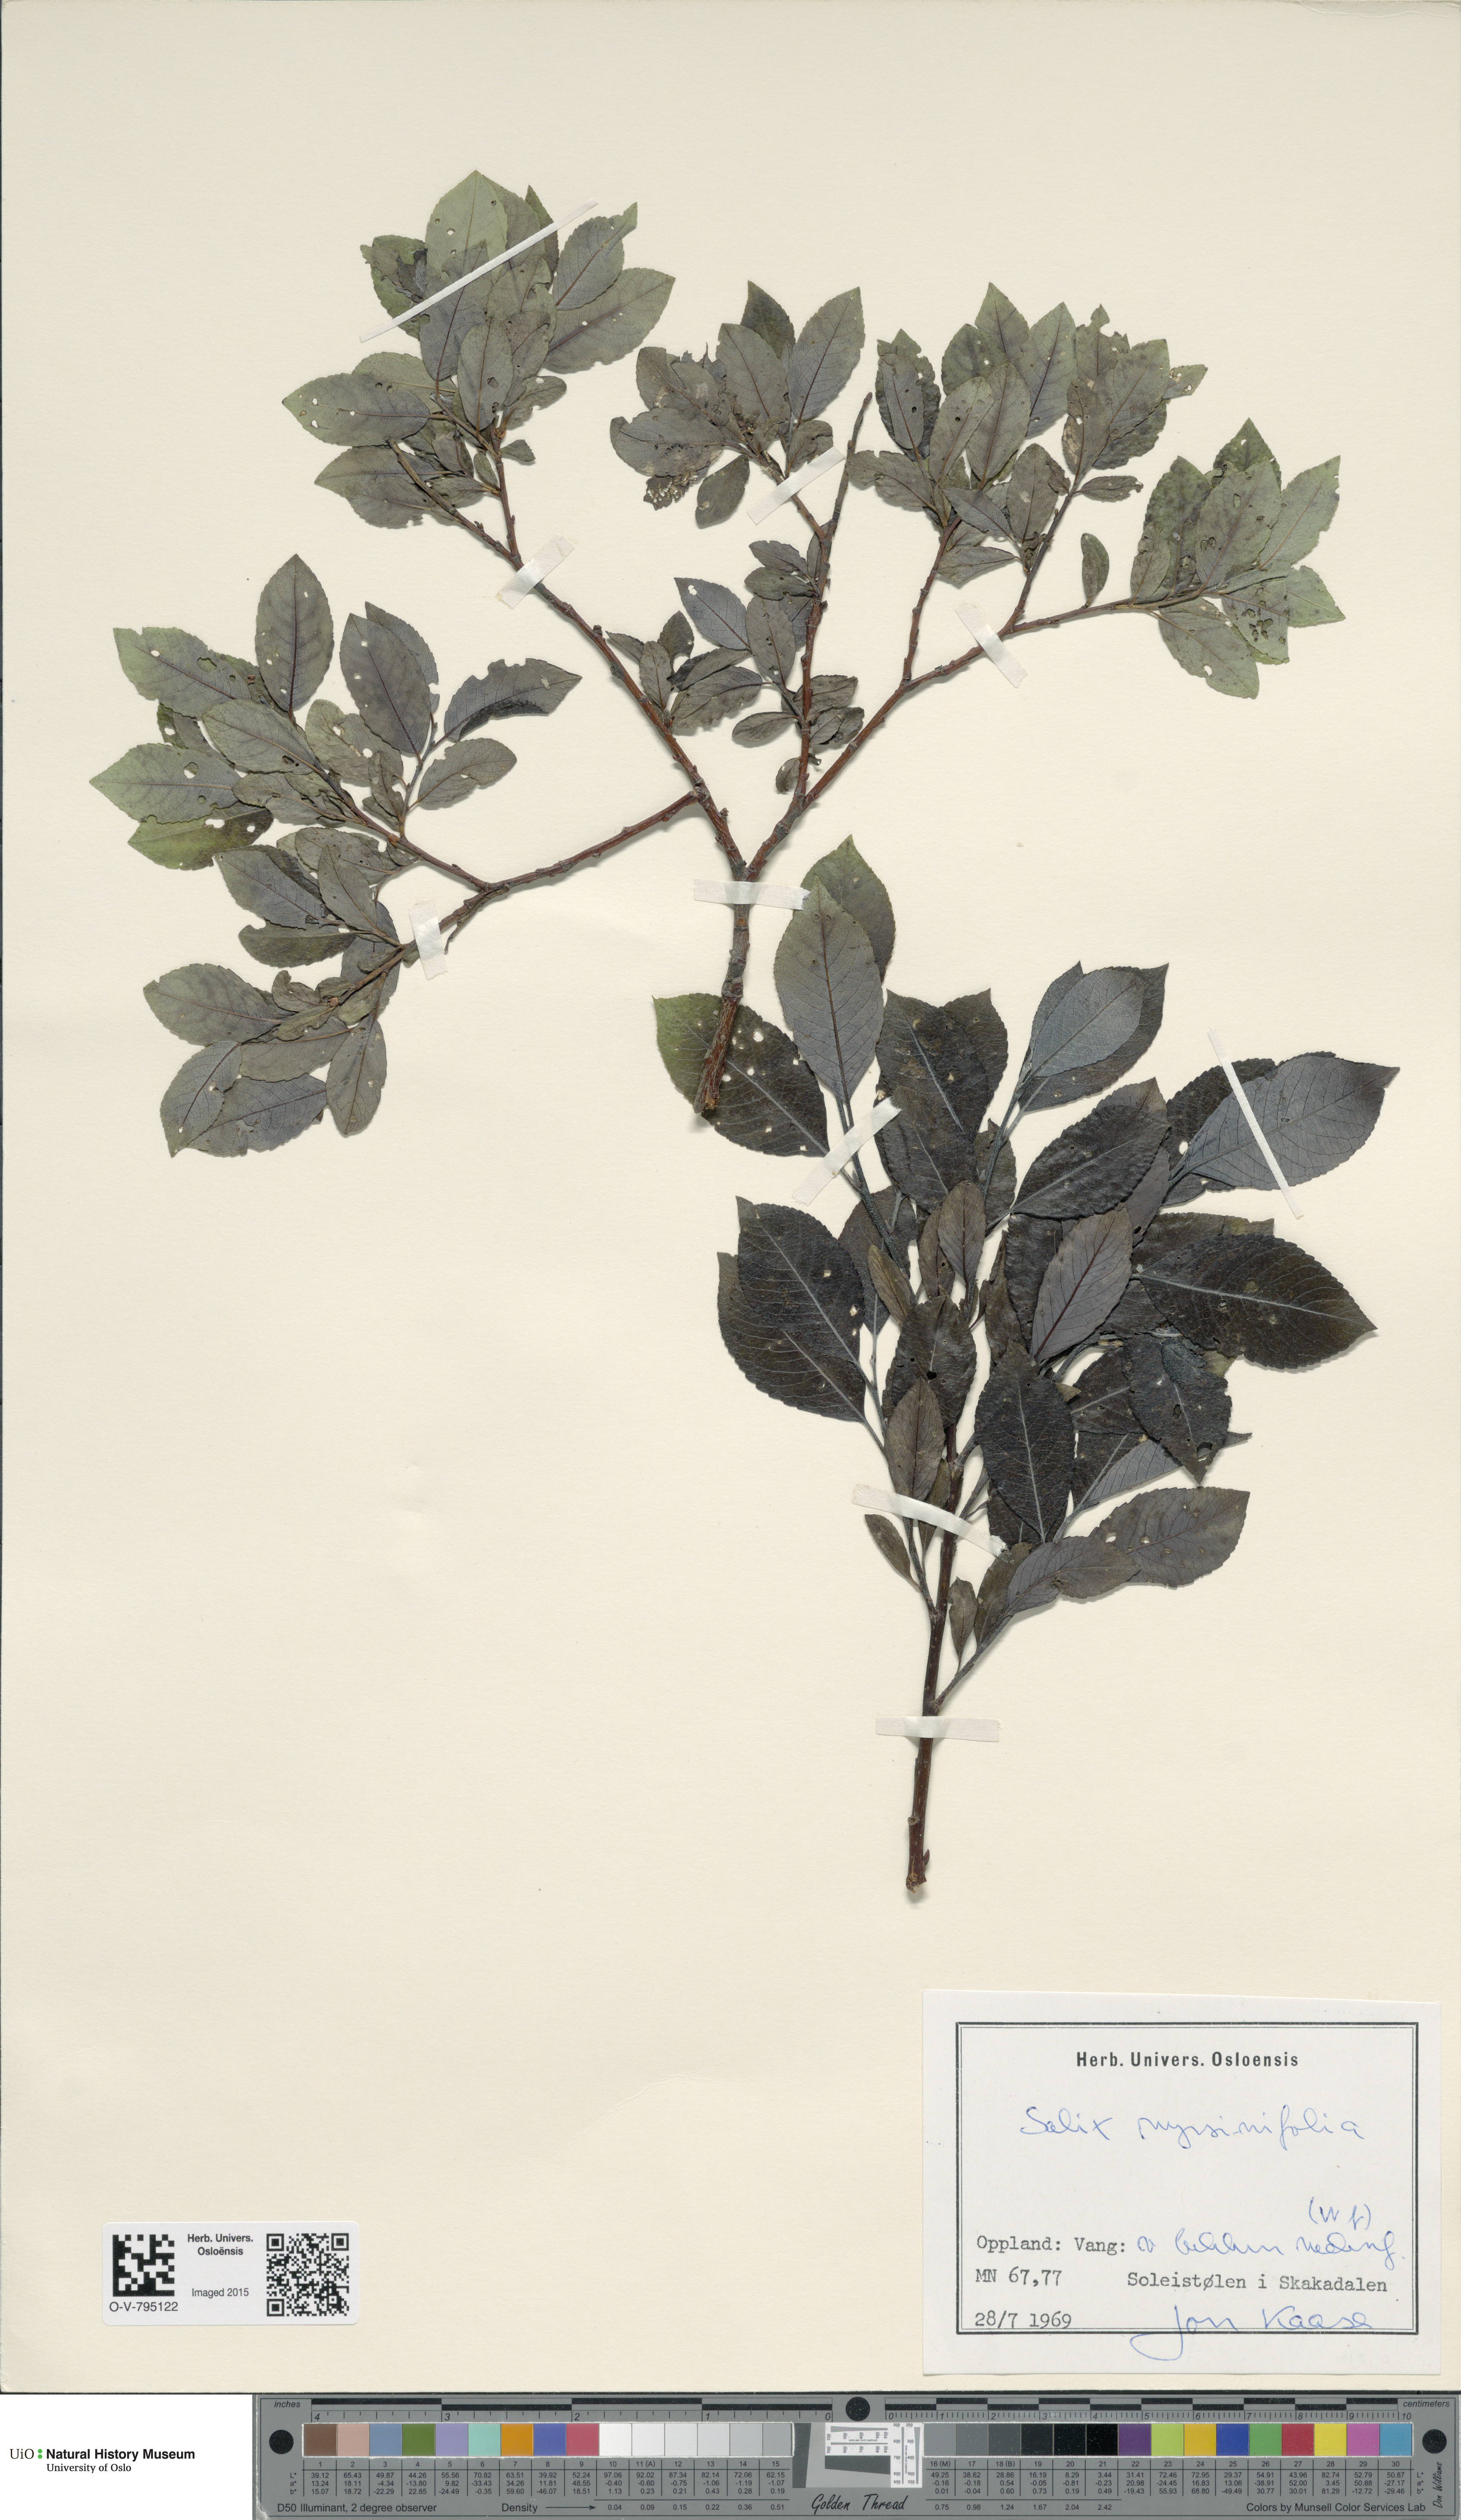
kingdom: Plantae
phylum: Tracheophyta
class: Magnoliopsida
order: Malpighiales
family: Salicaceae
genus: Salix
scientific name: Salix myrsinifolia
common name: Dark-leaved willow
